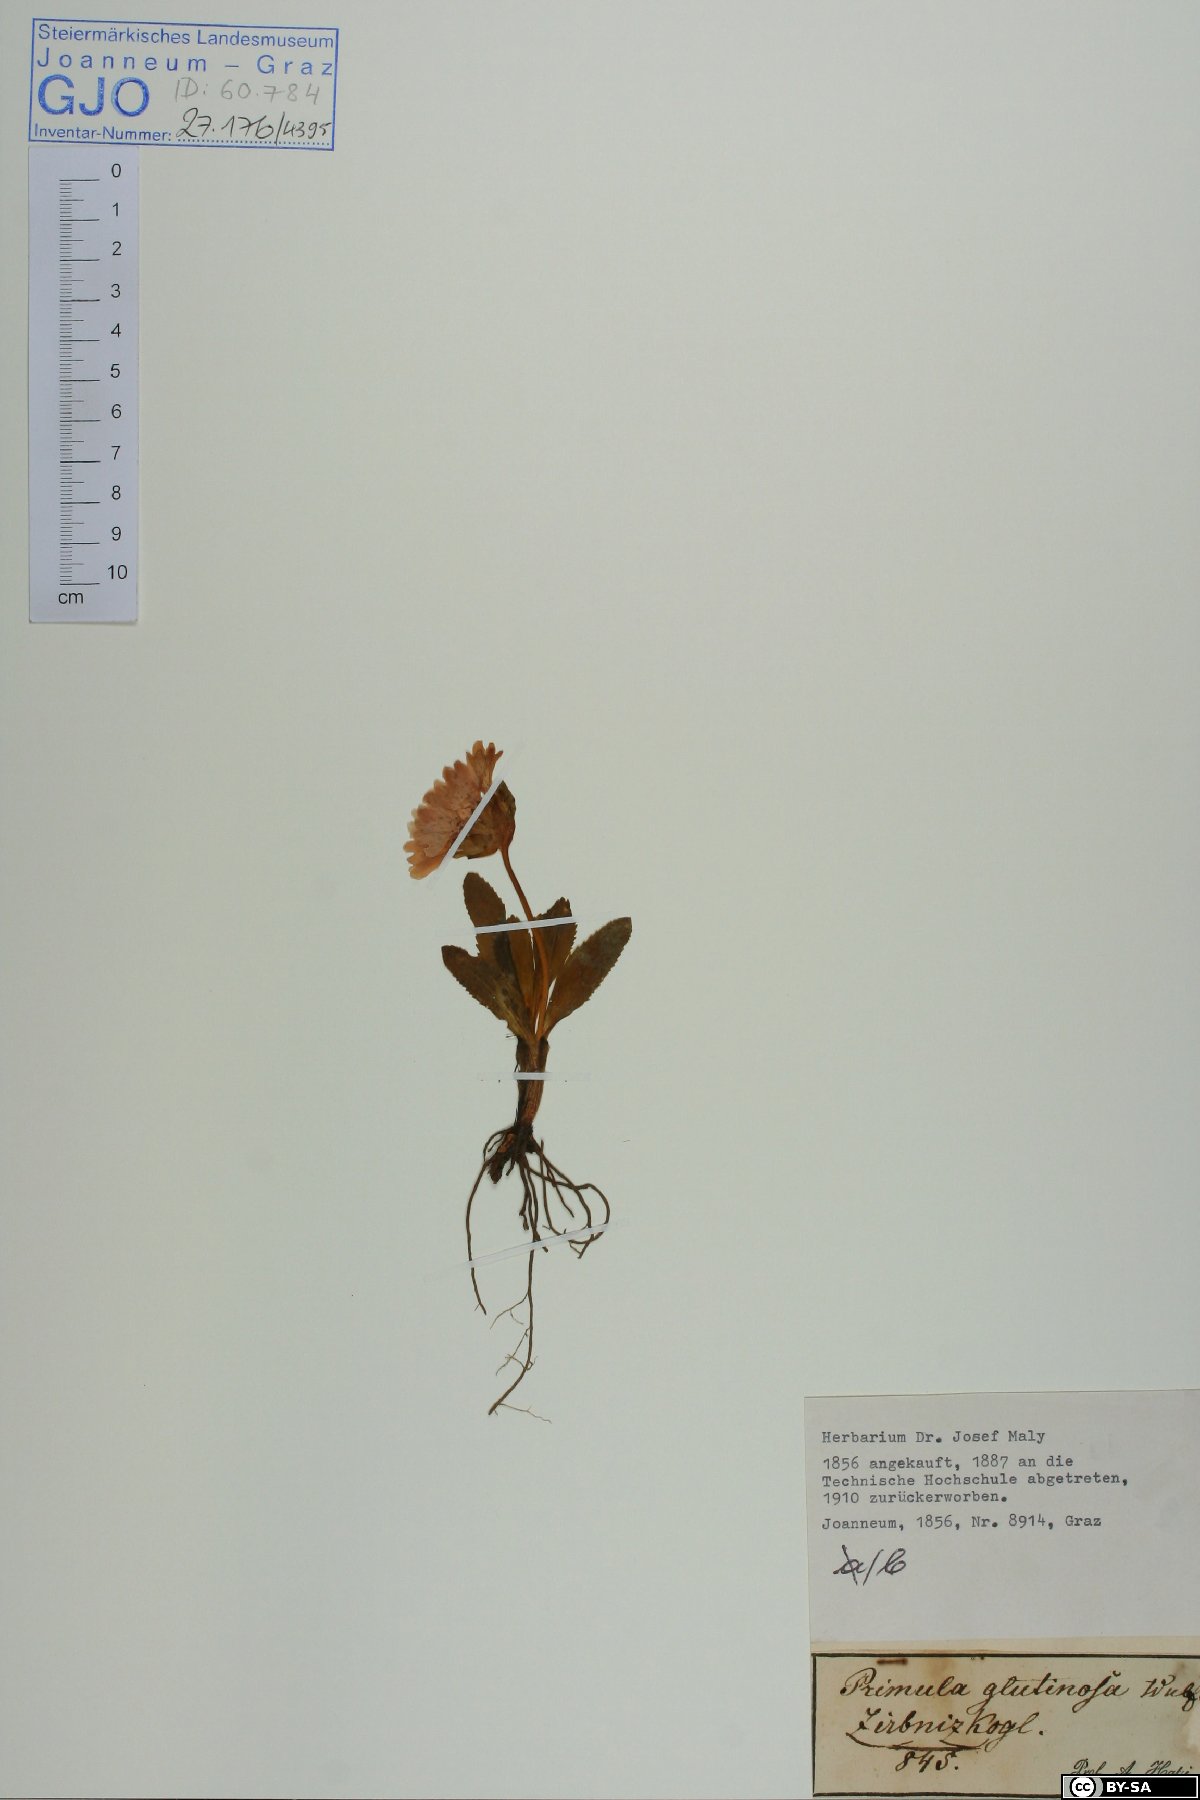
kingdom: Plantae
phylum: Tracheophyta
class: Magnoliopsida
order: Ericales
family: Primulaceae
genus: Primula
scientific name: Primula glutinosa
